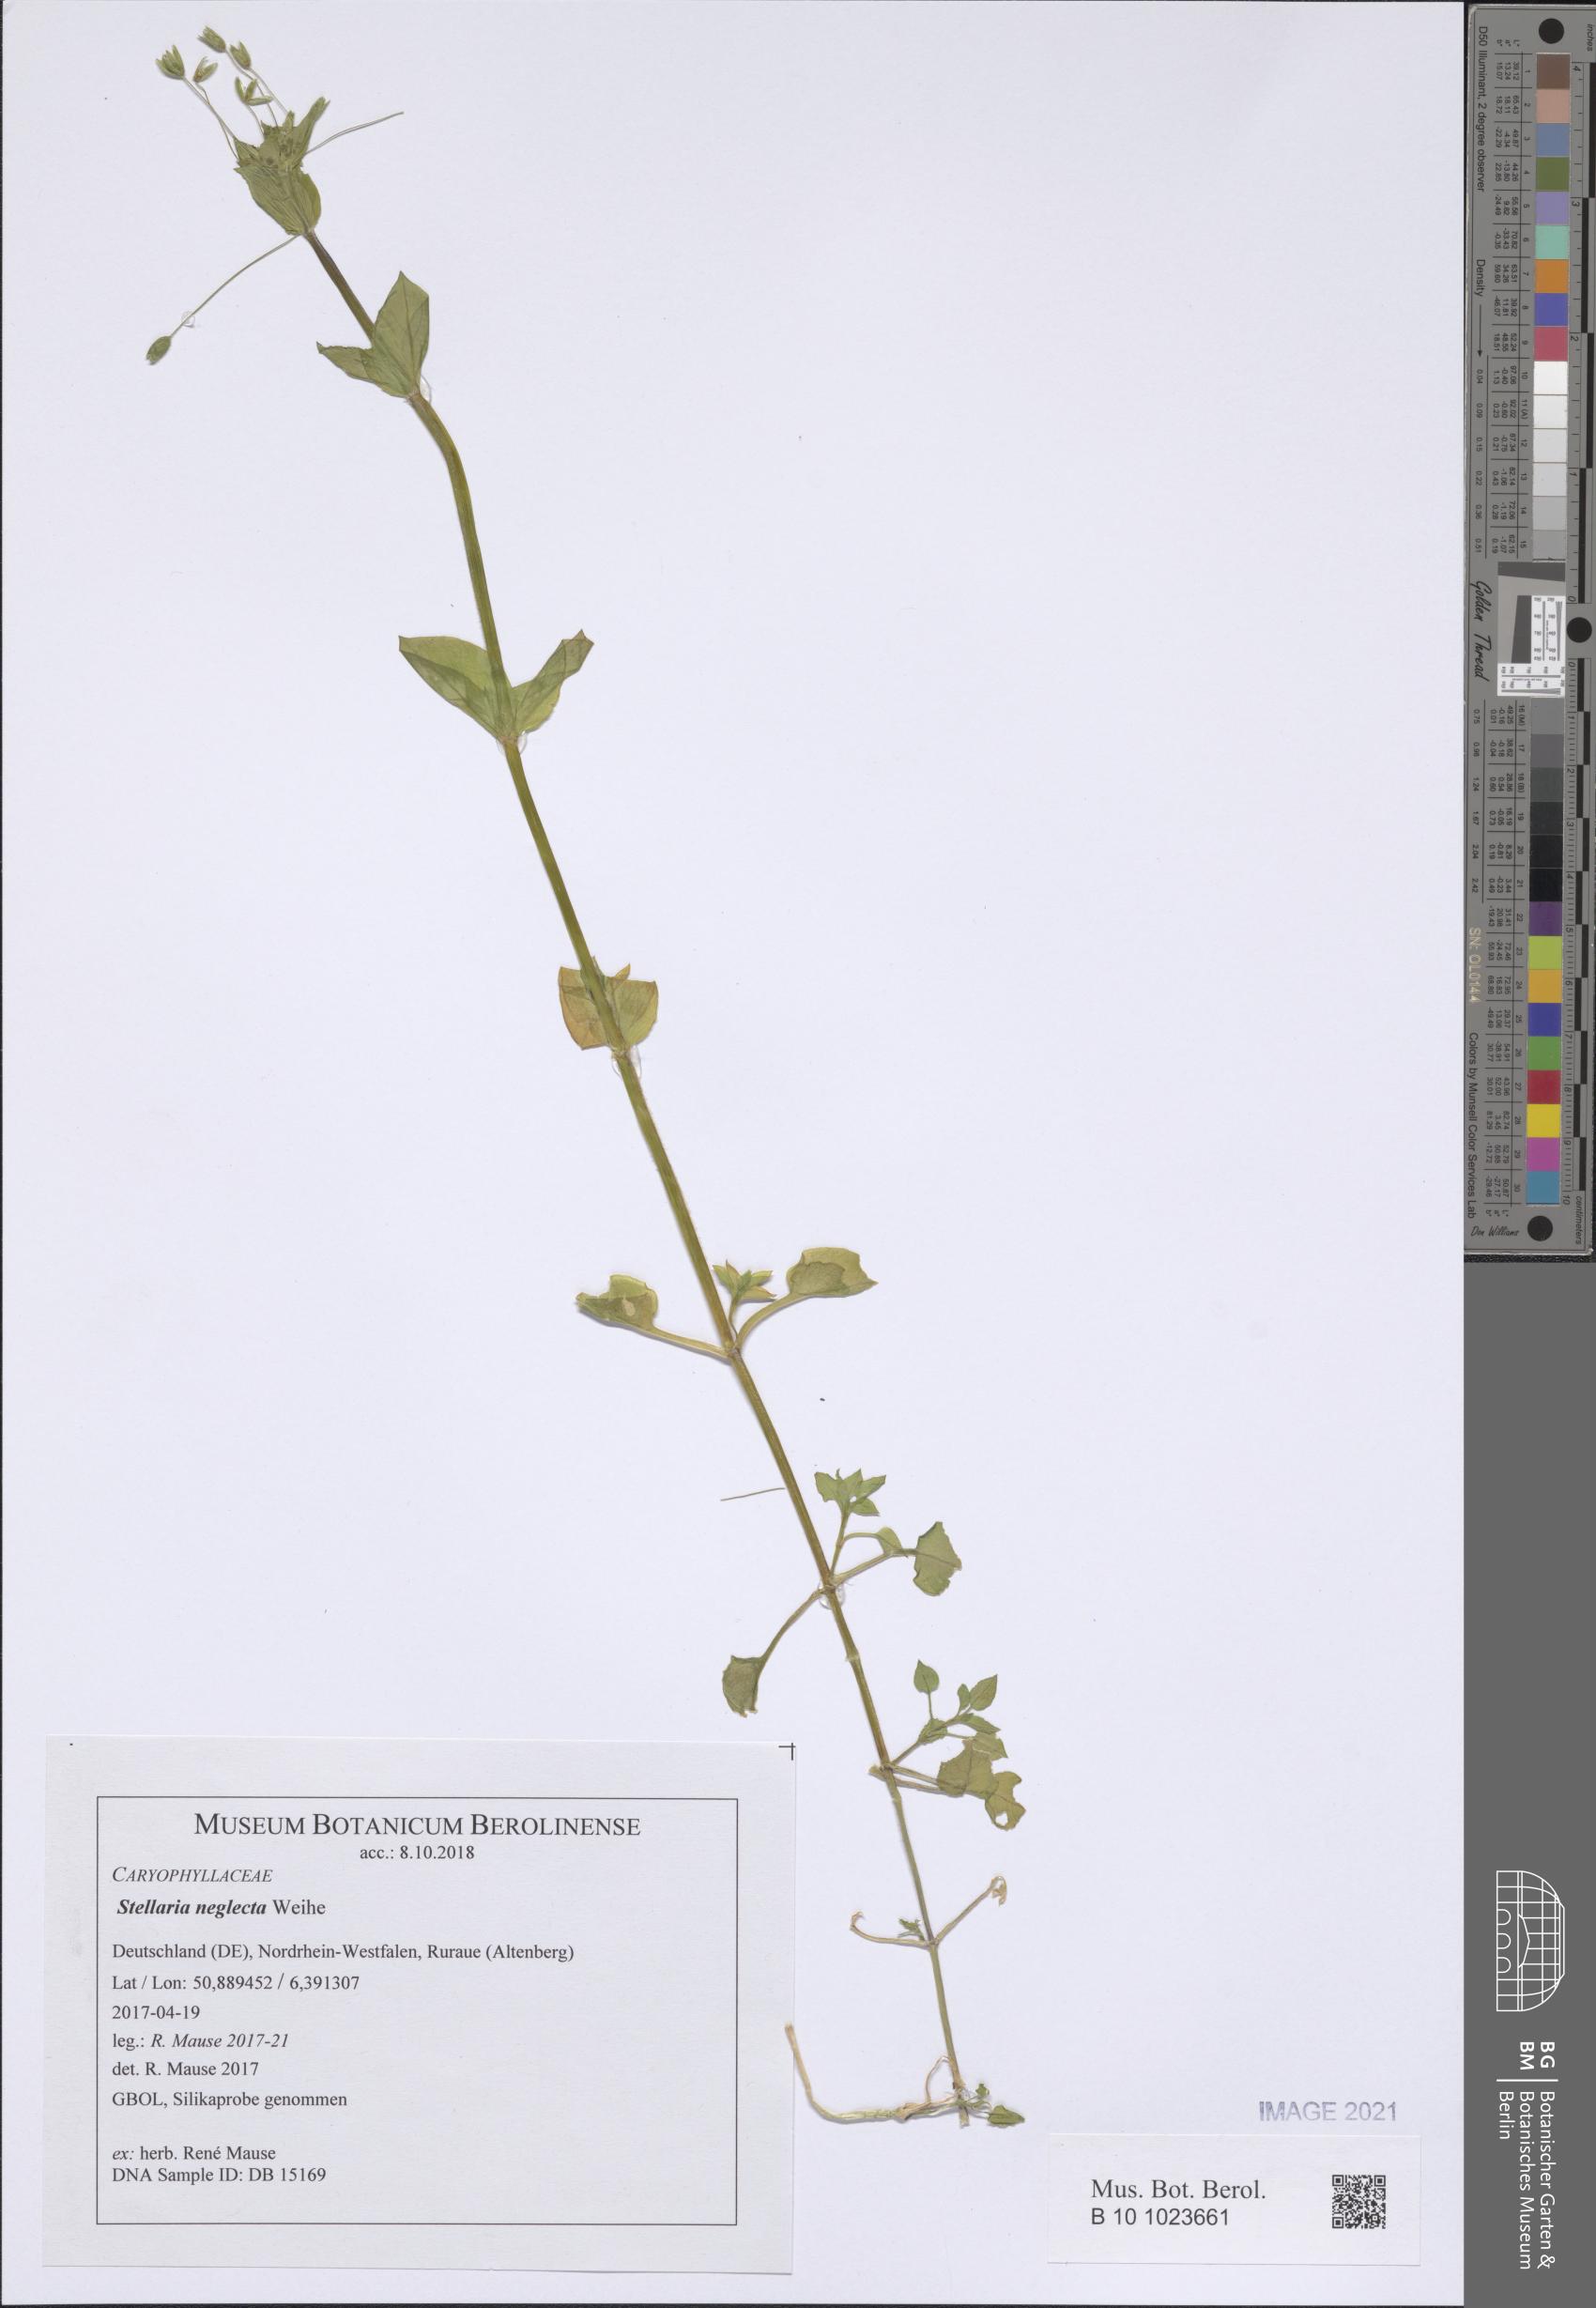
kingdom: Plantae
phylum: Tracheophyta
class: Magnoliopsida
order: Caryophyllales
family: Caryophyllaceae
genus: Stellaria
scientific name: Stellaria neglecta
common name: Greater chickweed
